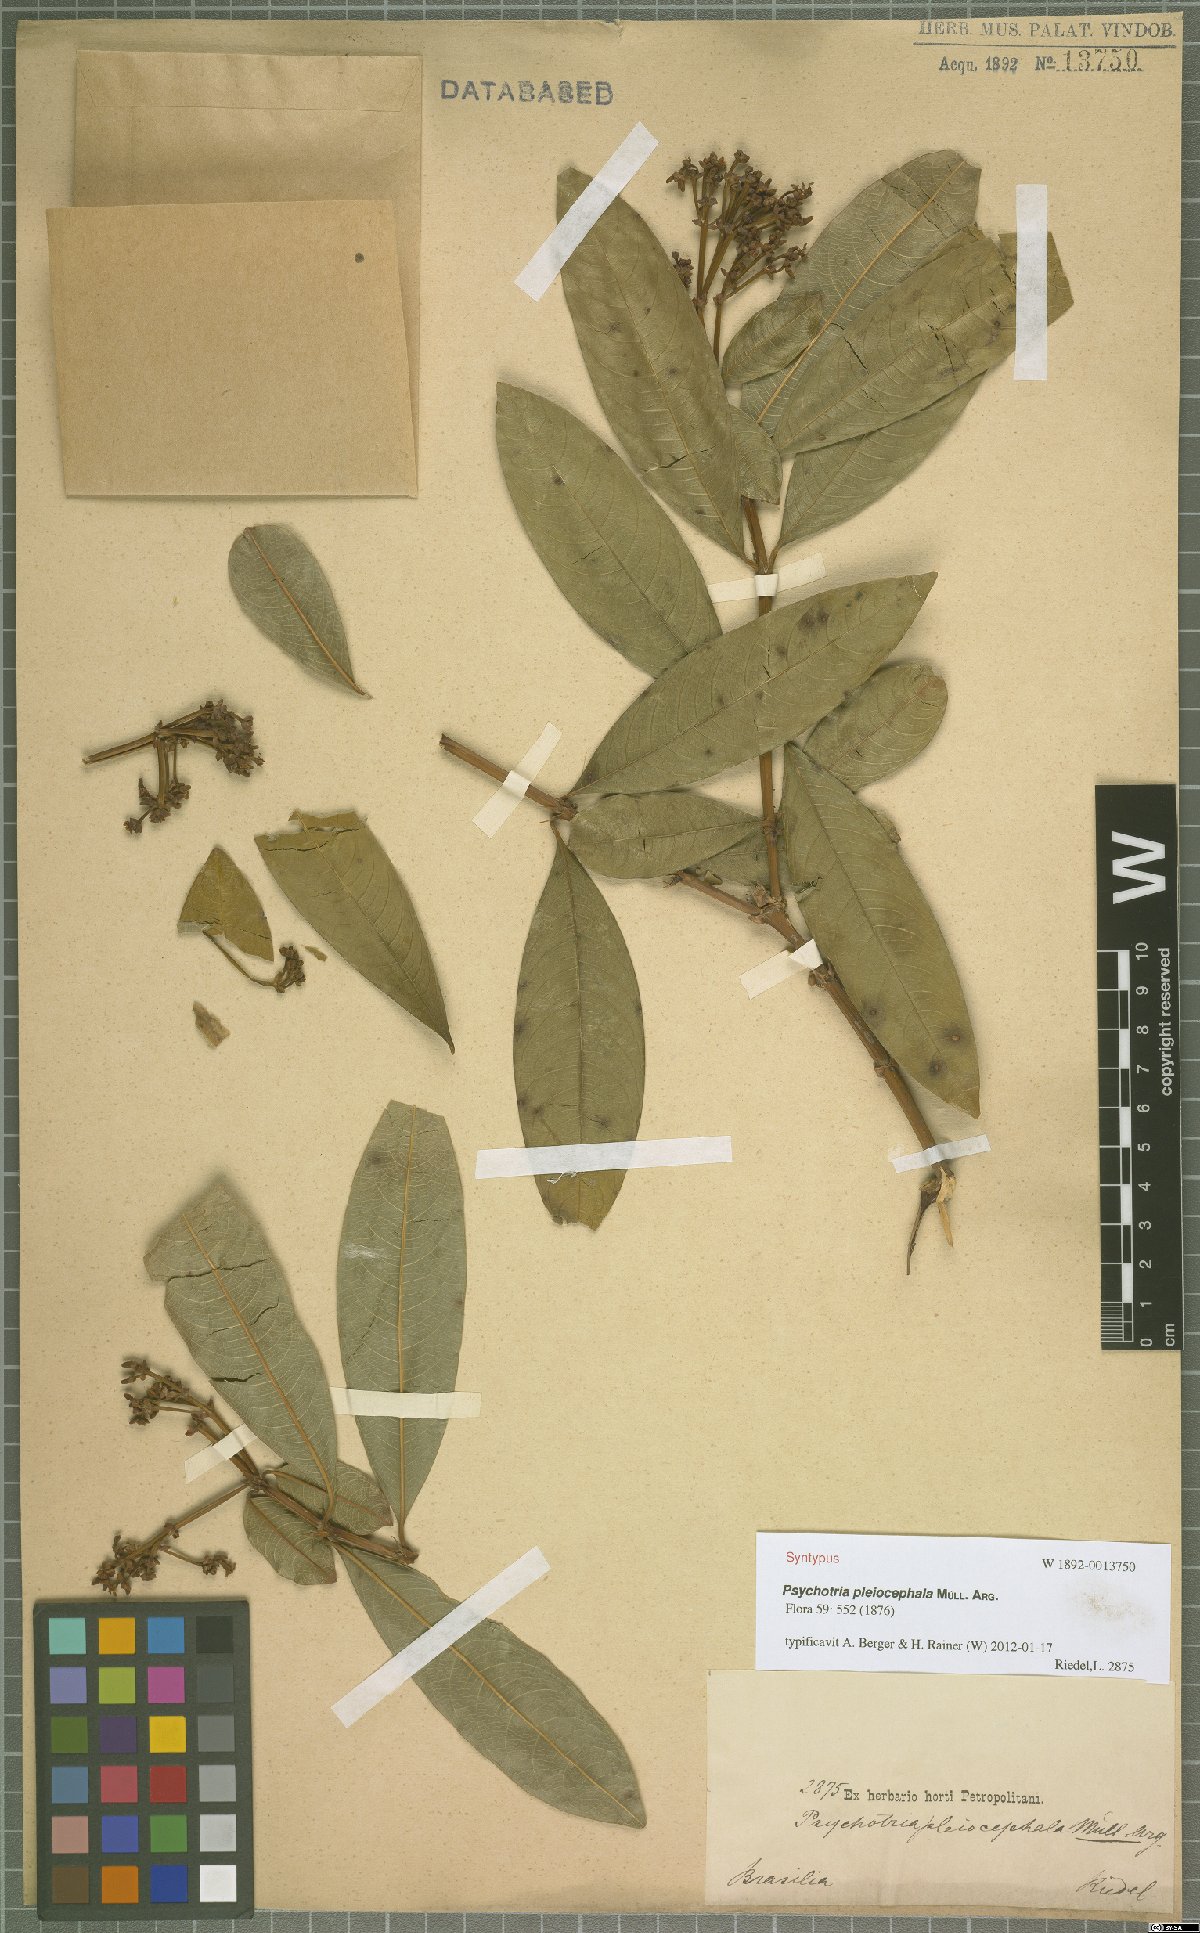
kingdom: Plantae
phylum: Tracheophyta
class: Magnoliopsida
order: Gentianales
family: Rubiaceae
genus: Palicourea
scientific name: Palicourea pleiocephala
